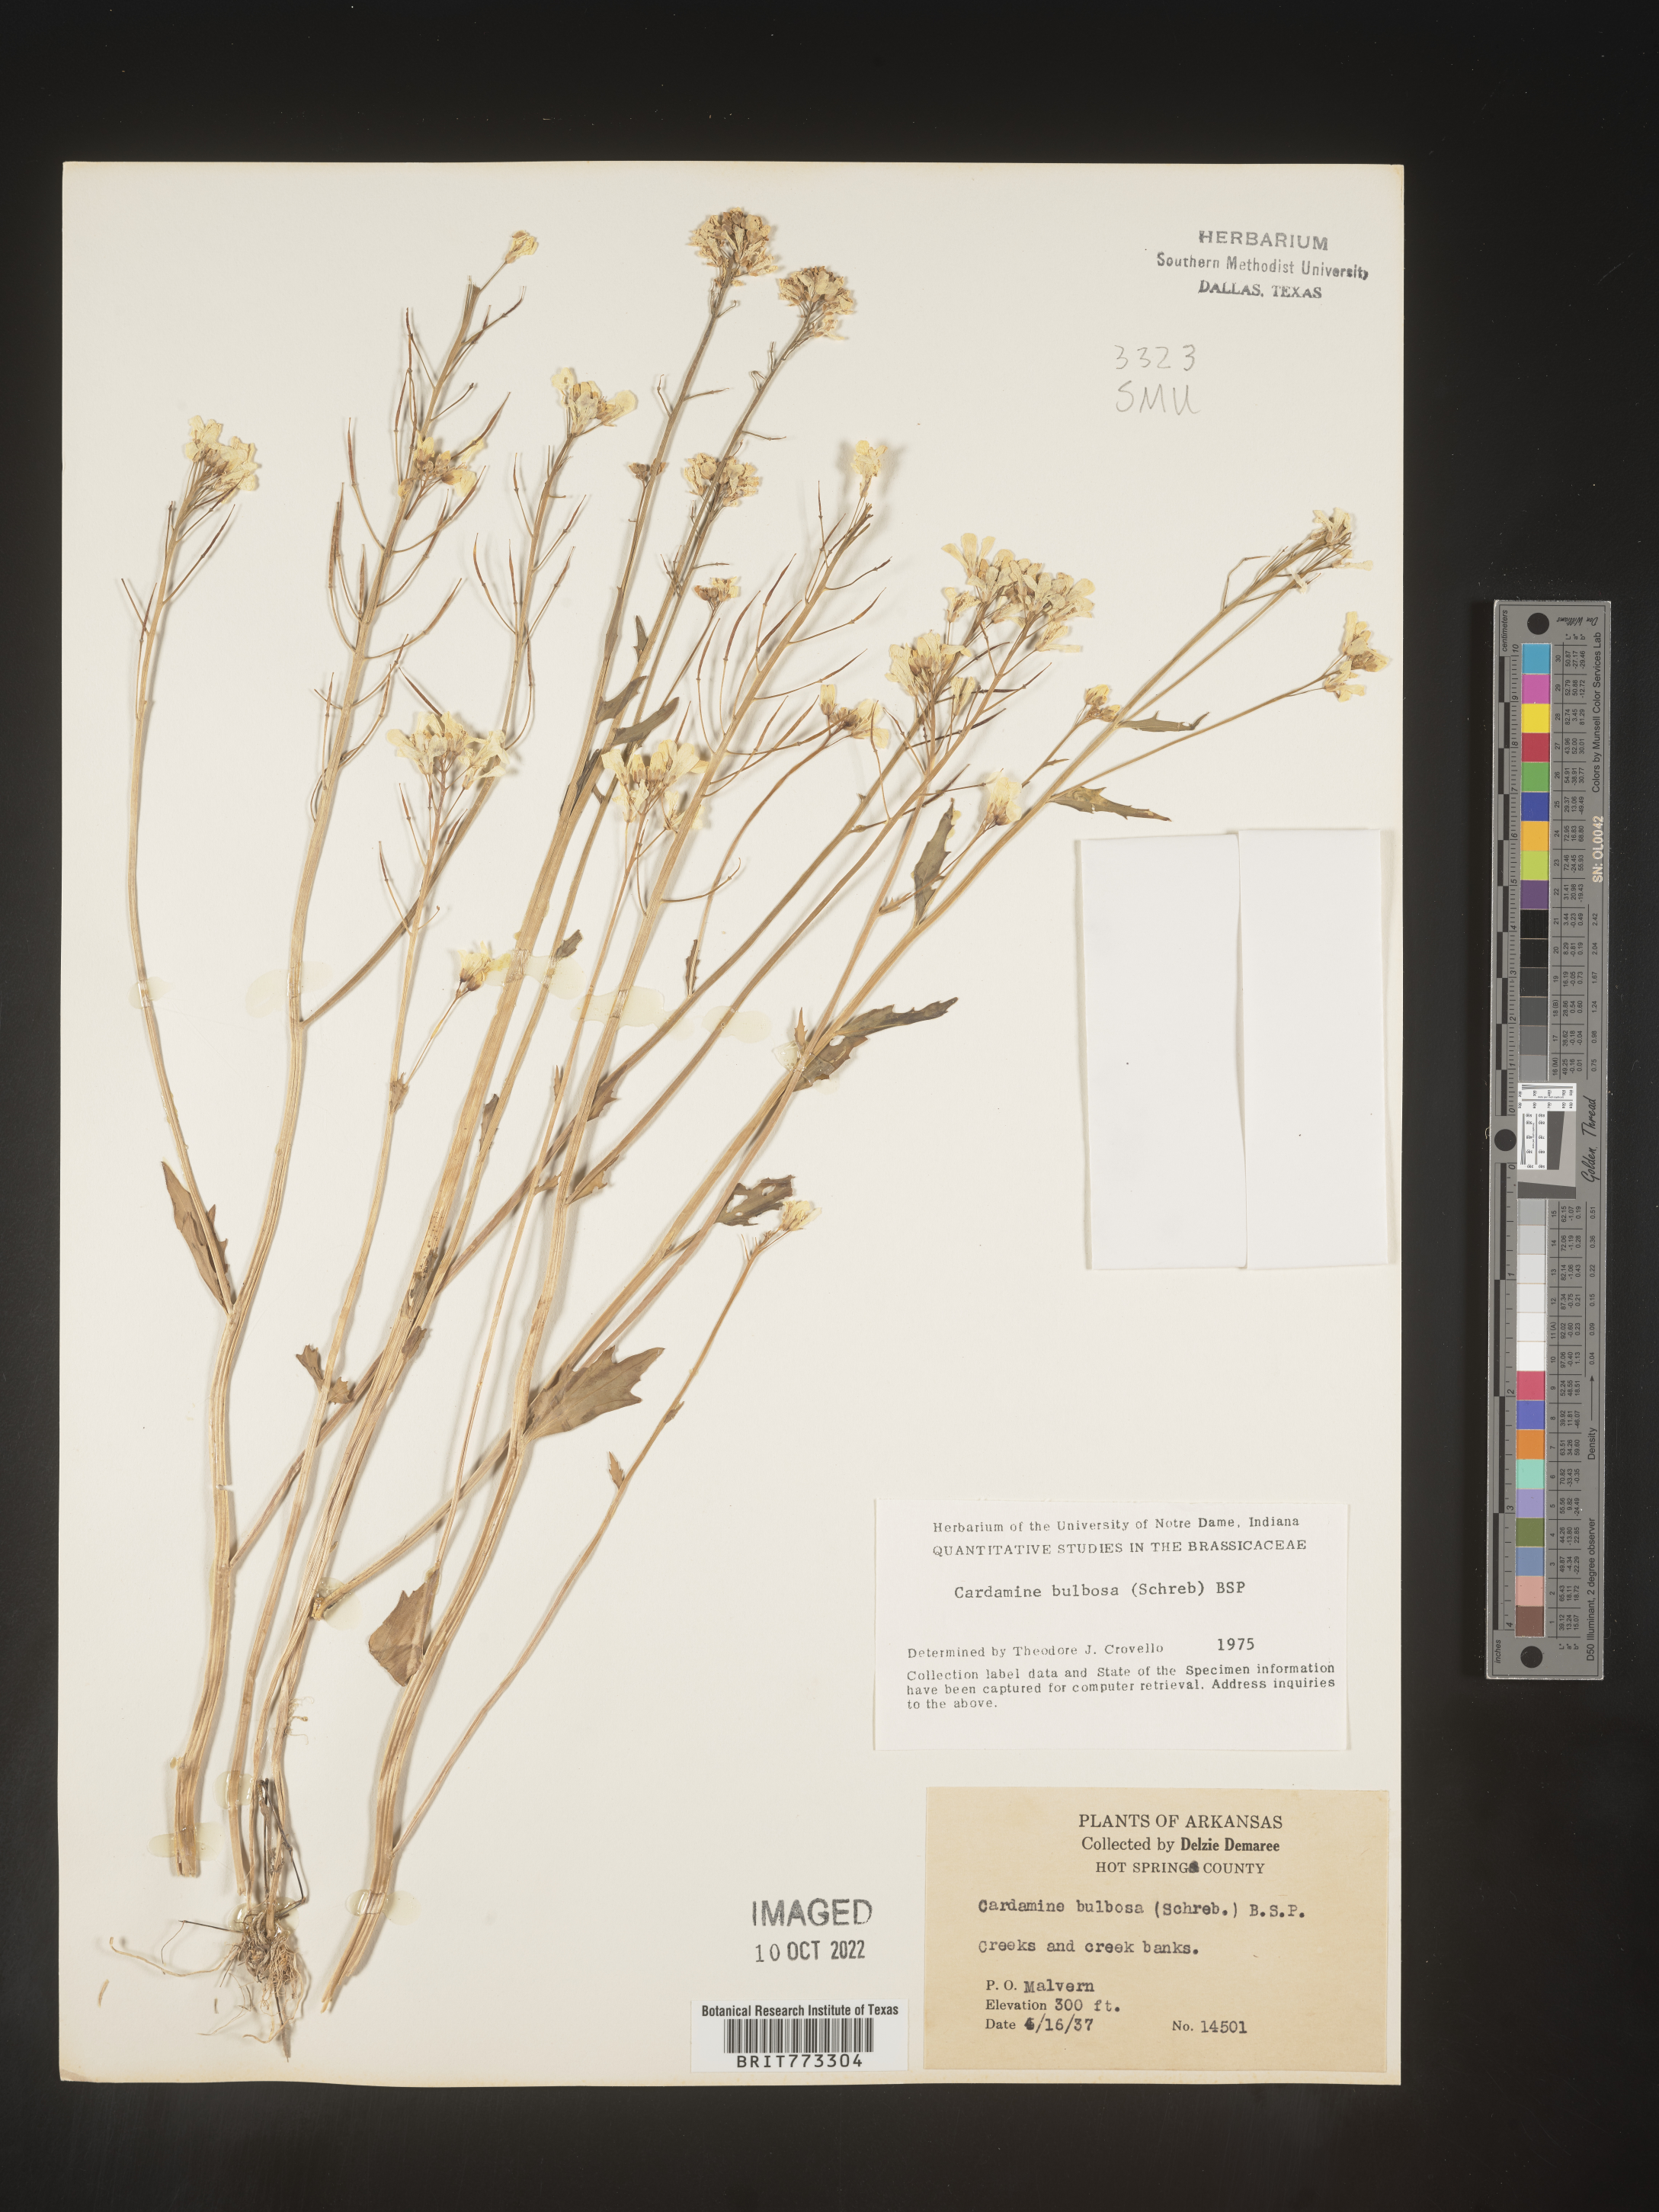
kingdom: Plantae
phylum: Tracheophyta
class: Magnoliopsida
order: Brassicales
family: Brassicaceae
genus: Cardamine
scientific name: Cardamine bulbosa
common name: Spring cress
